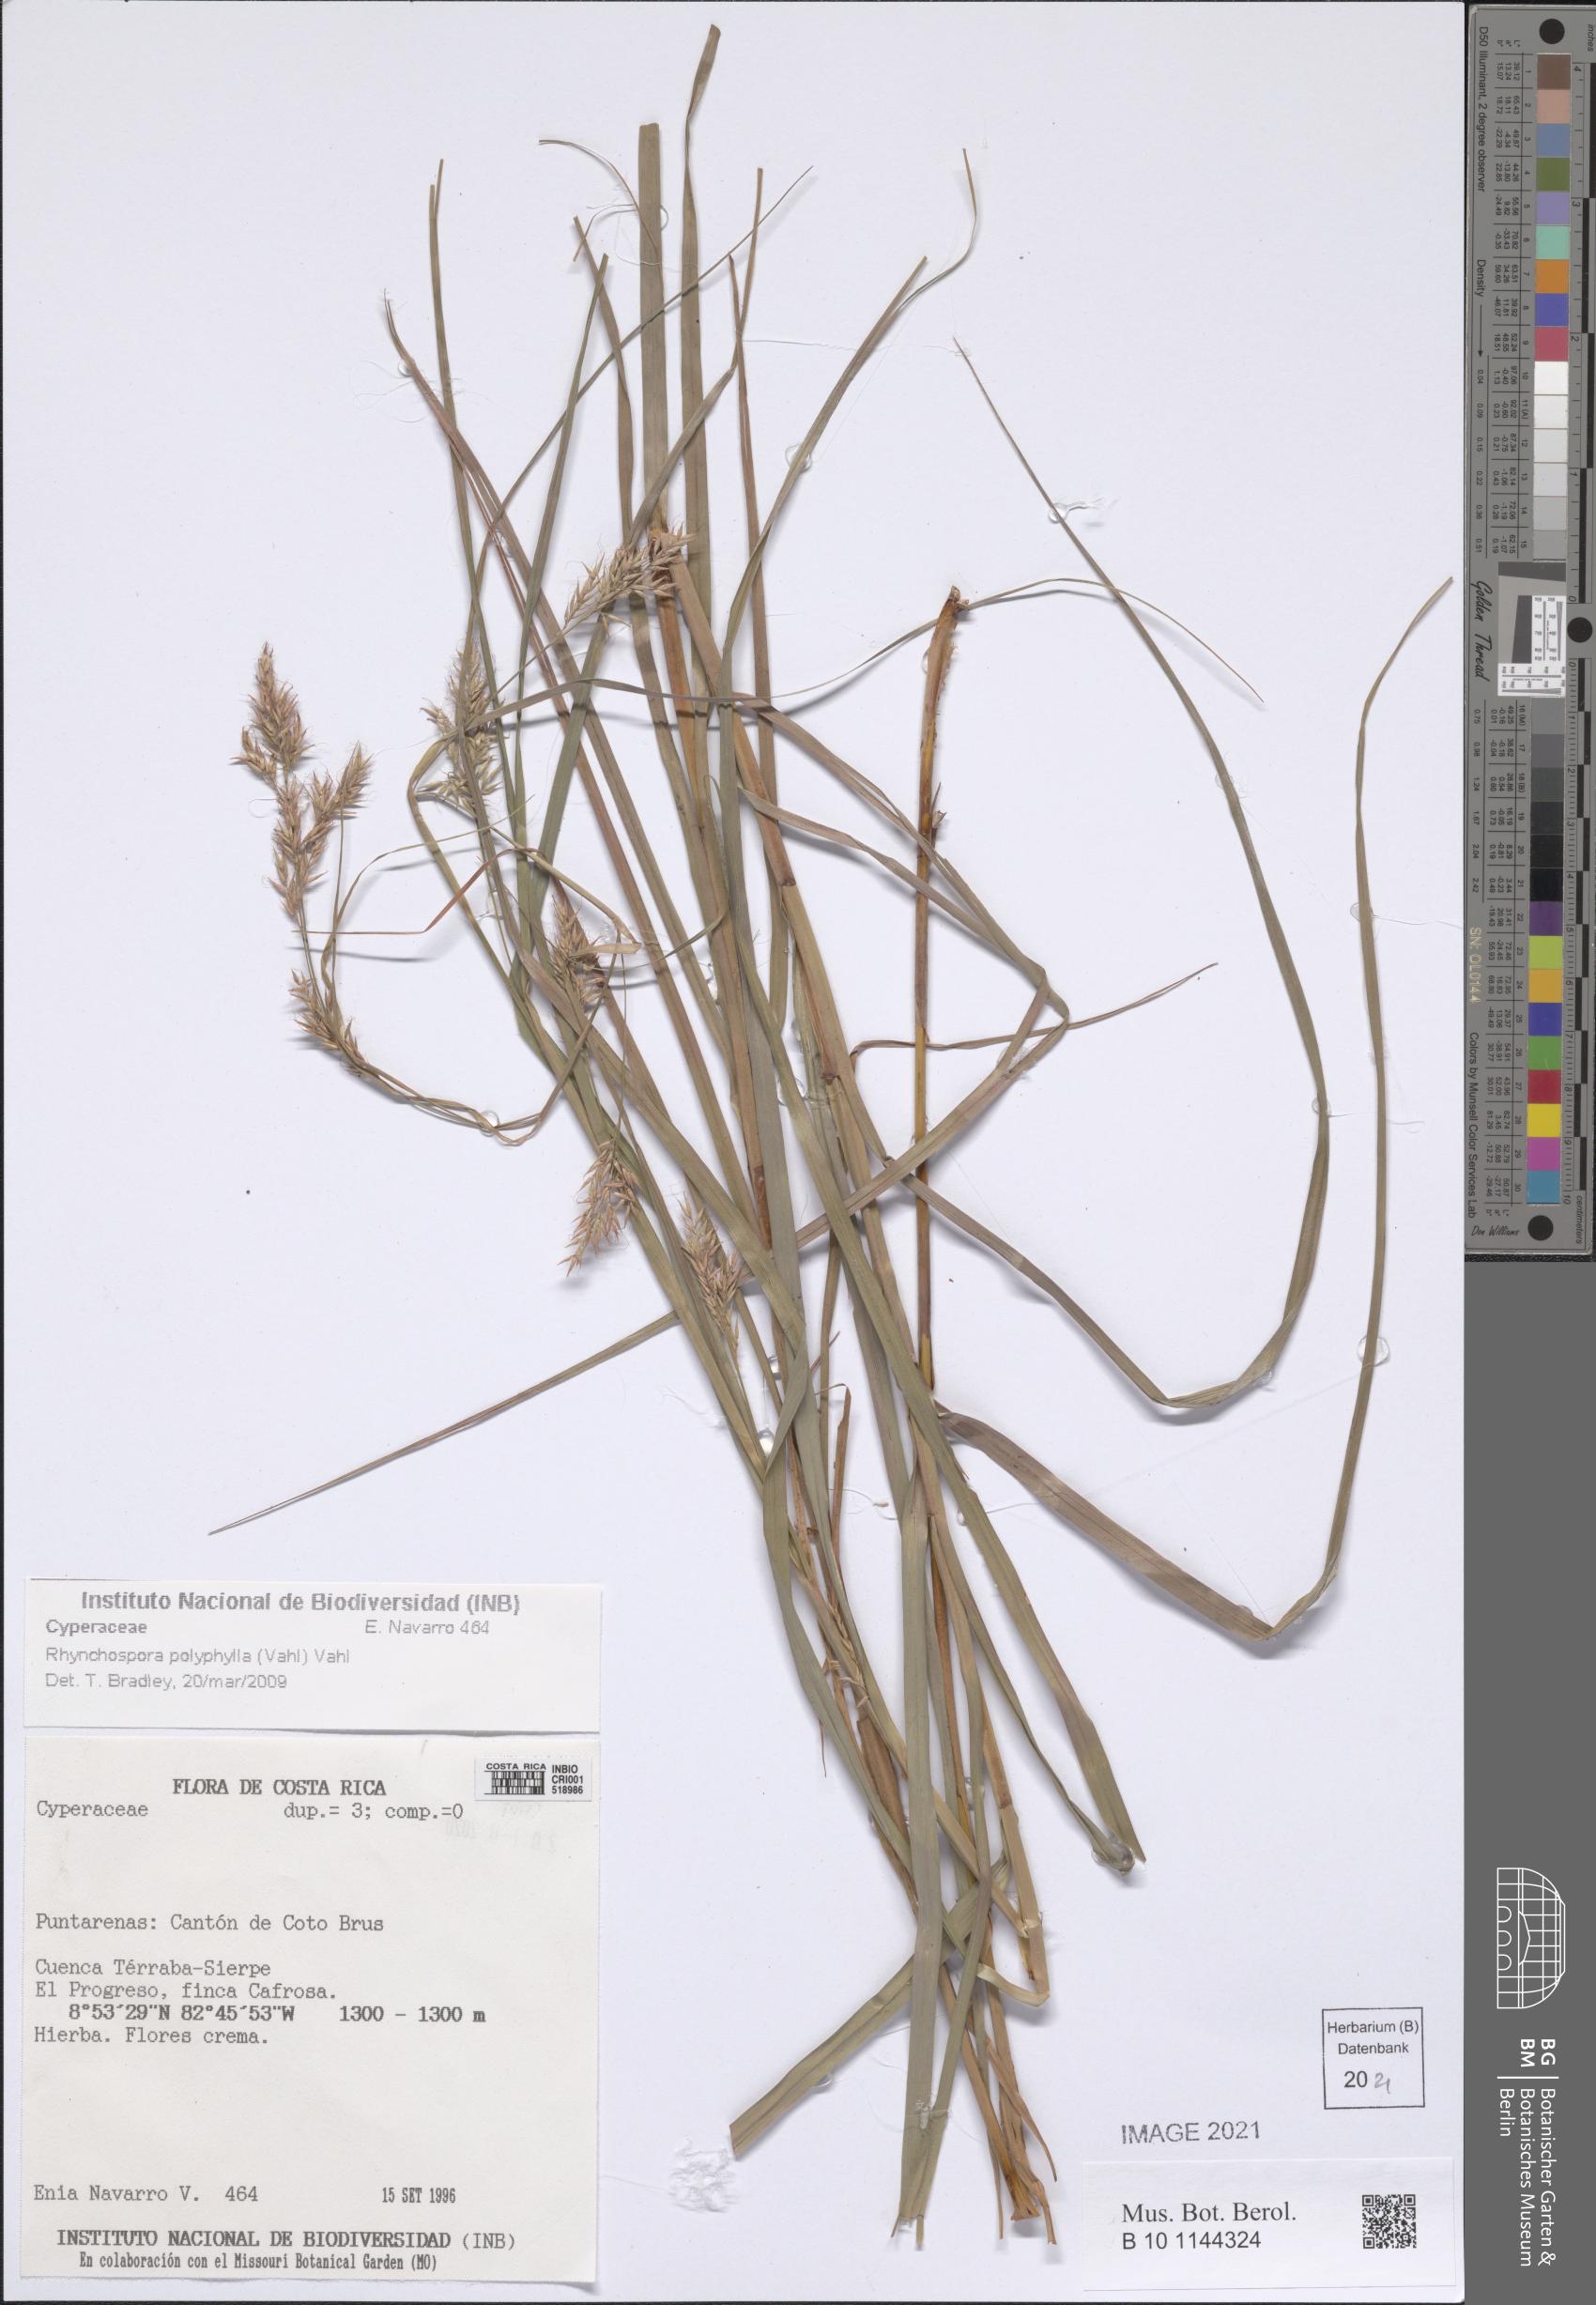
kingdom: Plantae
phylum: Tracheophyta
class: Liliopsida
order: Poales
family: Cyperaceae
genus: Rhynchospora
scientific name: Rhynchospora polyphylla
